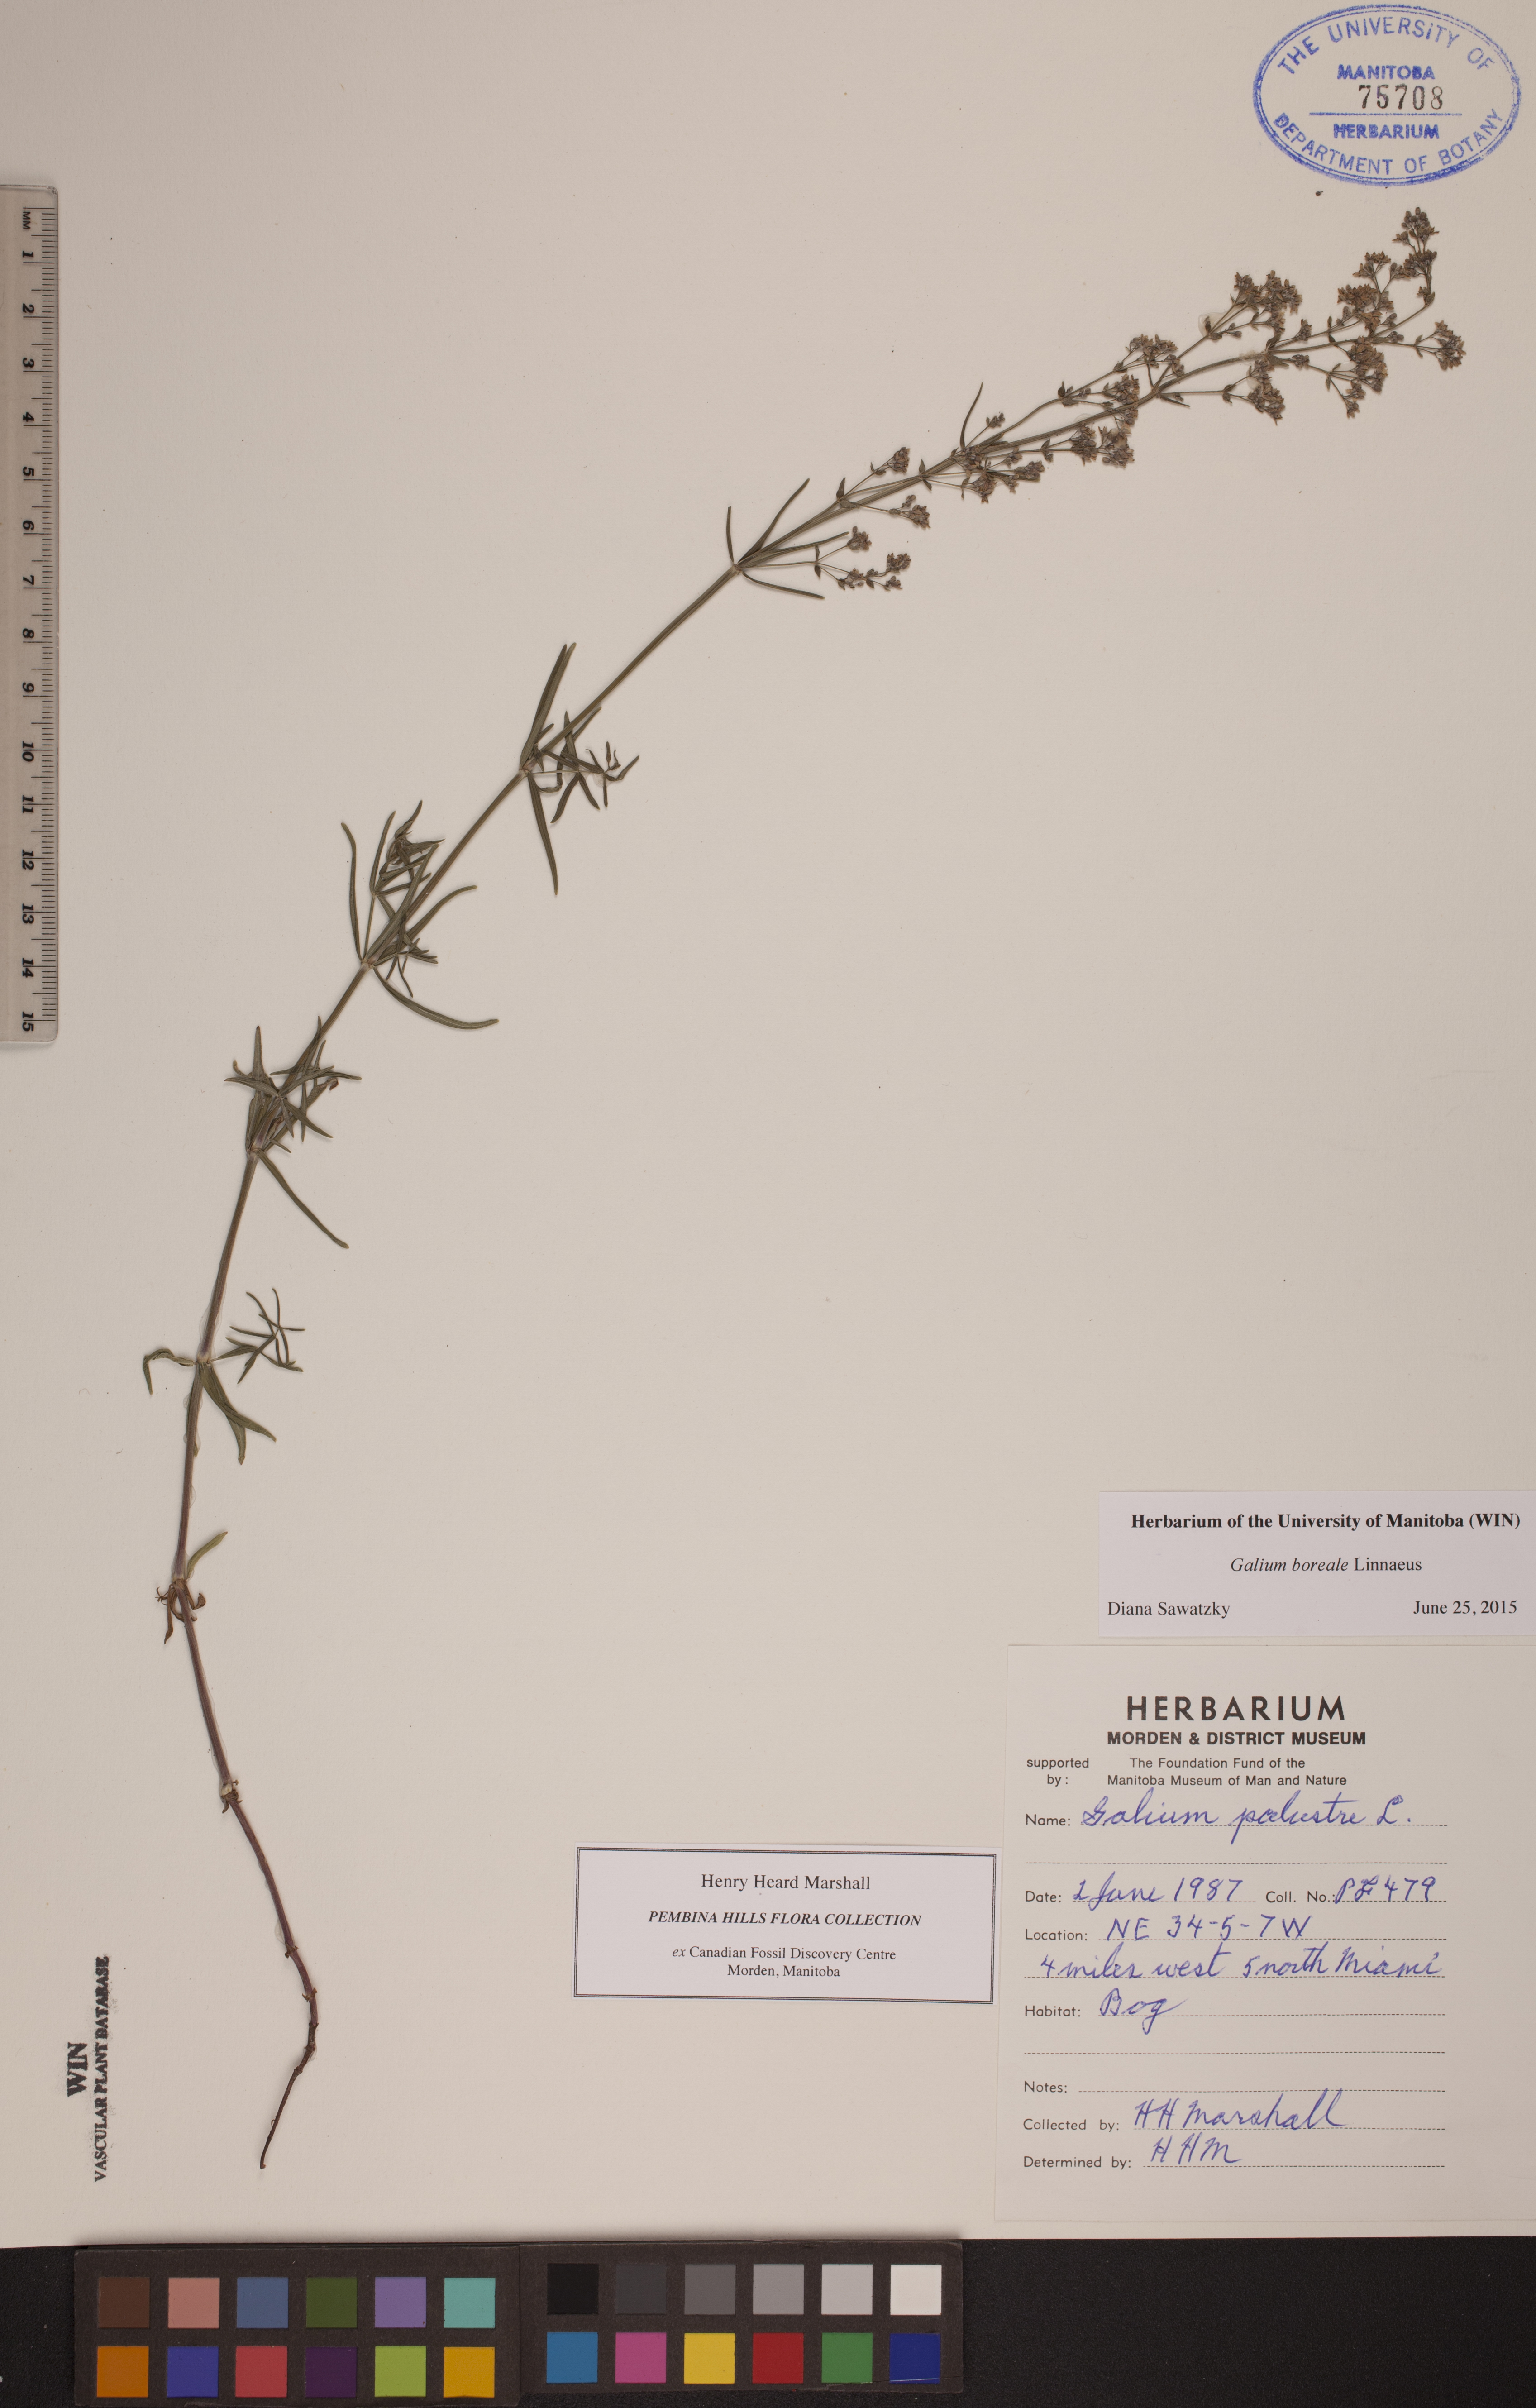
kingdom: Plantae
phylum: Tracheophyta
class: Magnoliopsida
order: Gentianales
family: Rubiaceae
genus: Galium
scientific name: Galium boreale
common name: Northern bedstraw
